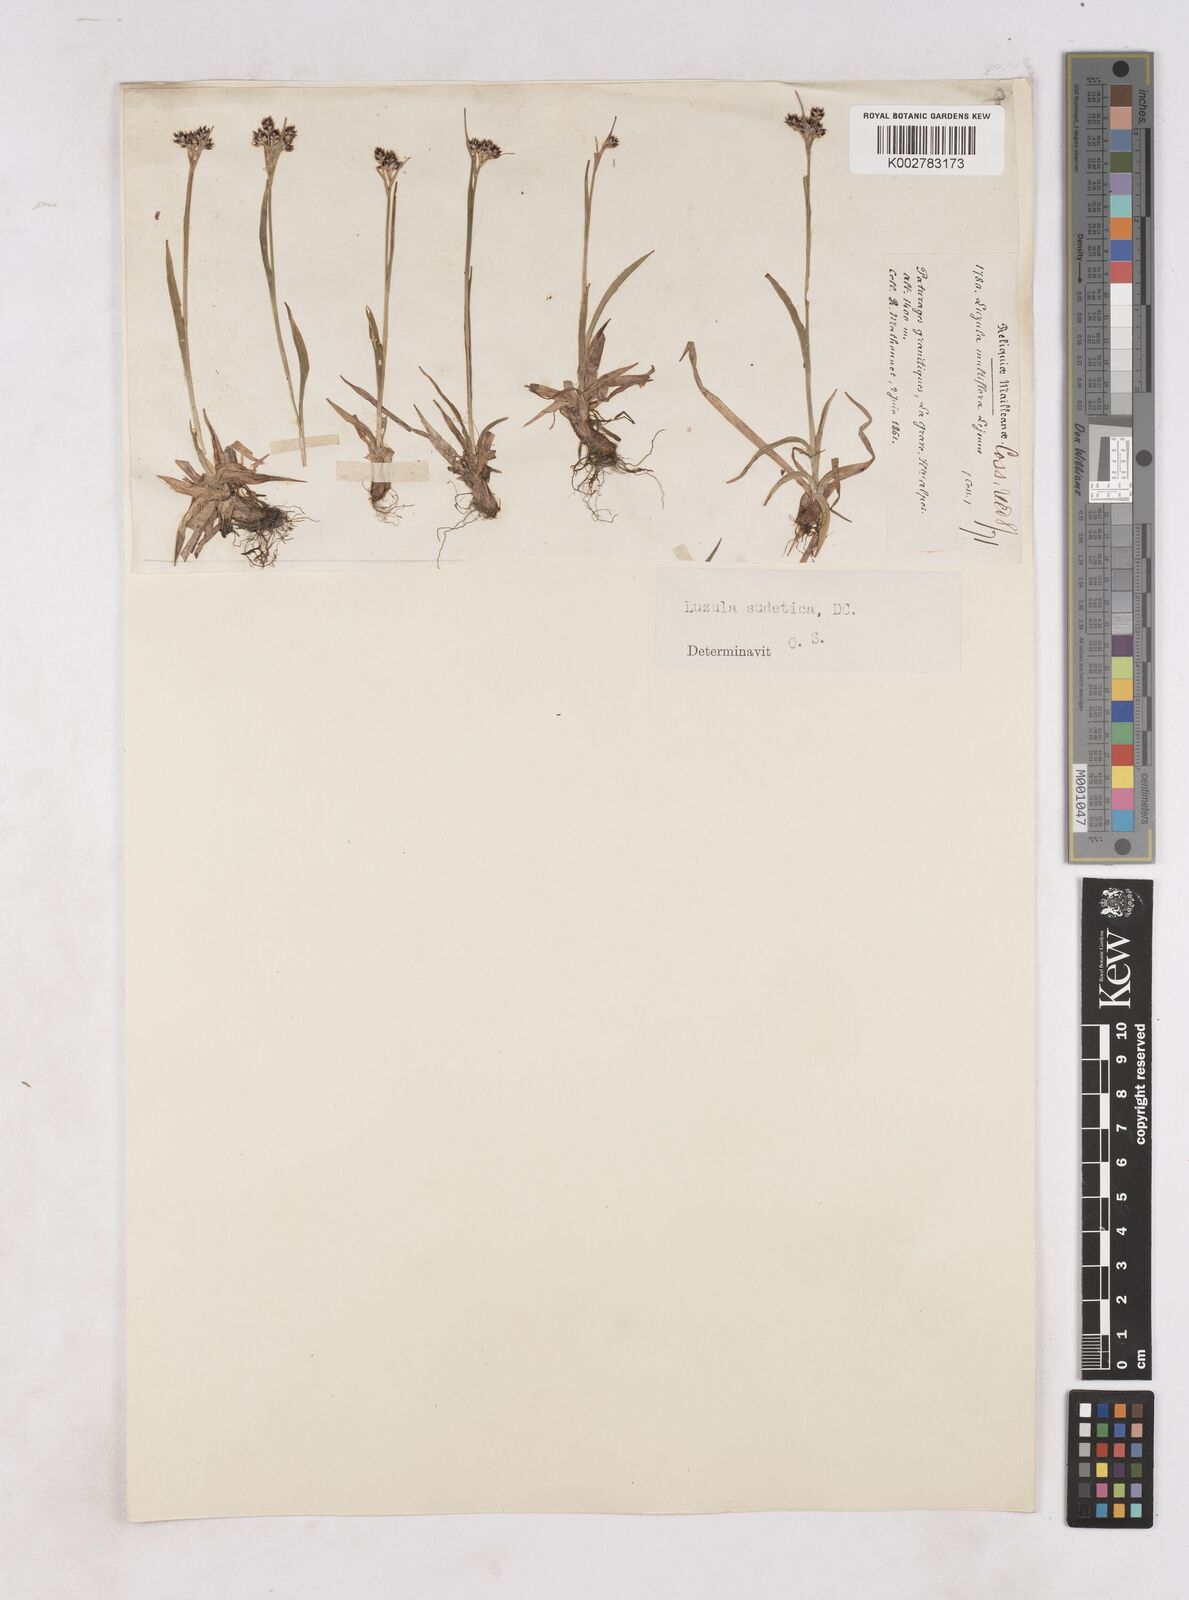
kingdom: Plantae
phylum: Tracheophyta
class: Liliopsida
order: Poales
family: Juncaceae
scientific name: Juncaceae
